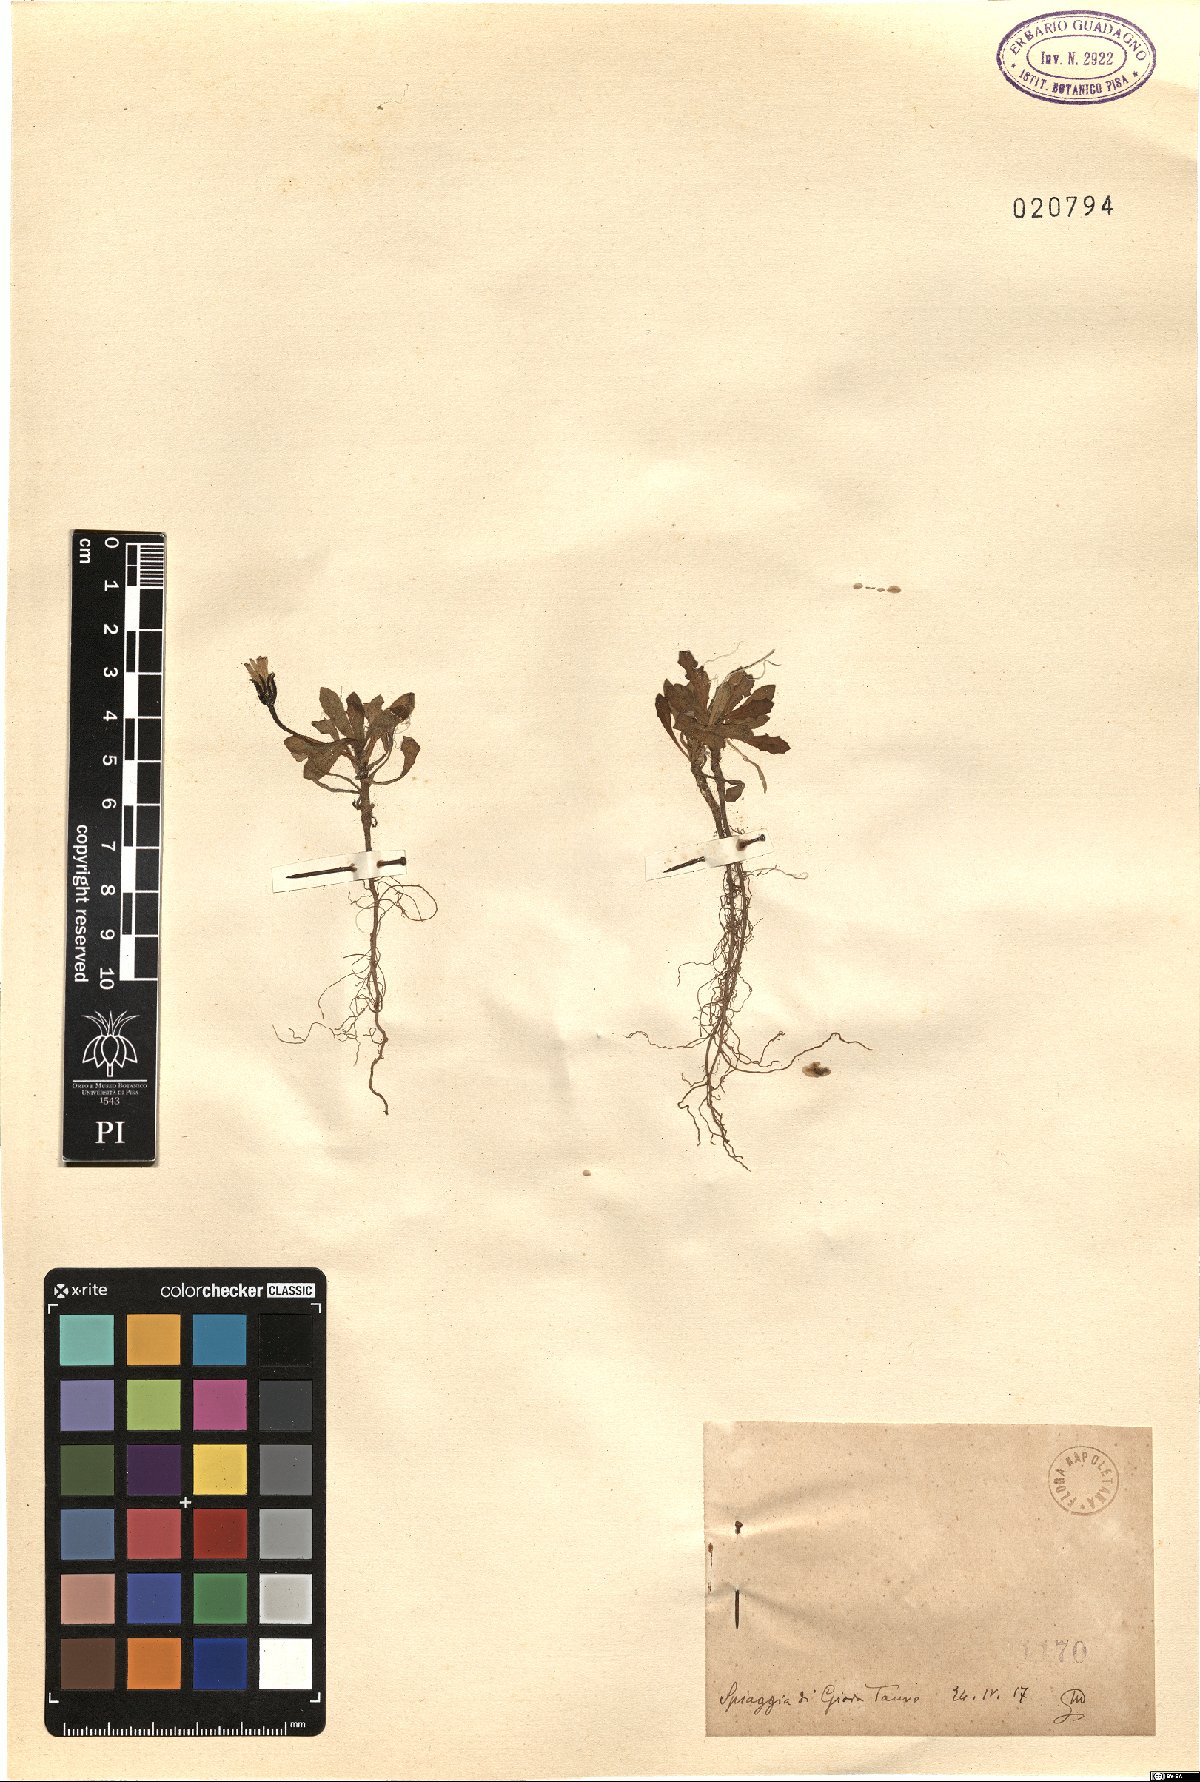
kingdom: Plantae
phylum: Tracheophyta
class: Magnoliopsida
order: Asterales
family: Asteraceae
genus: Rhagadiolus
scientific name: Rhagadiolus
